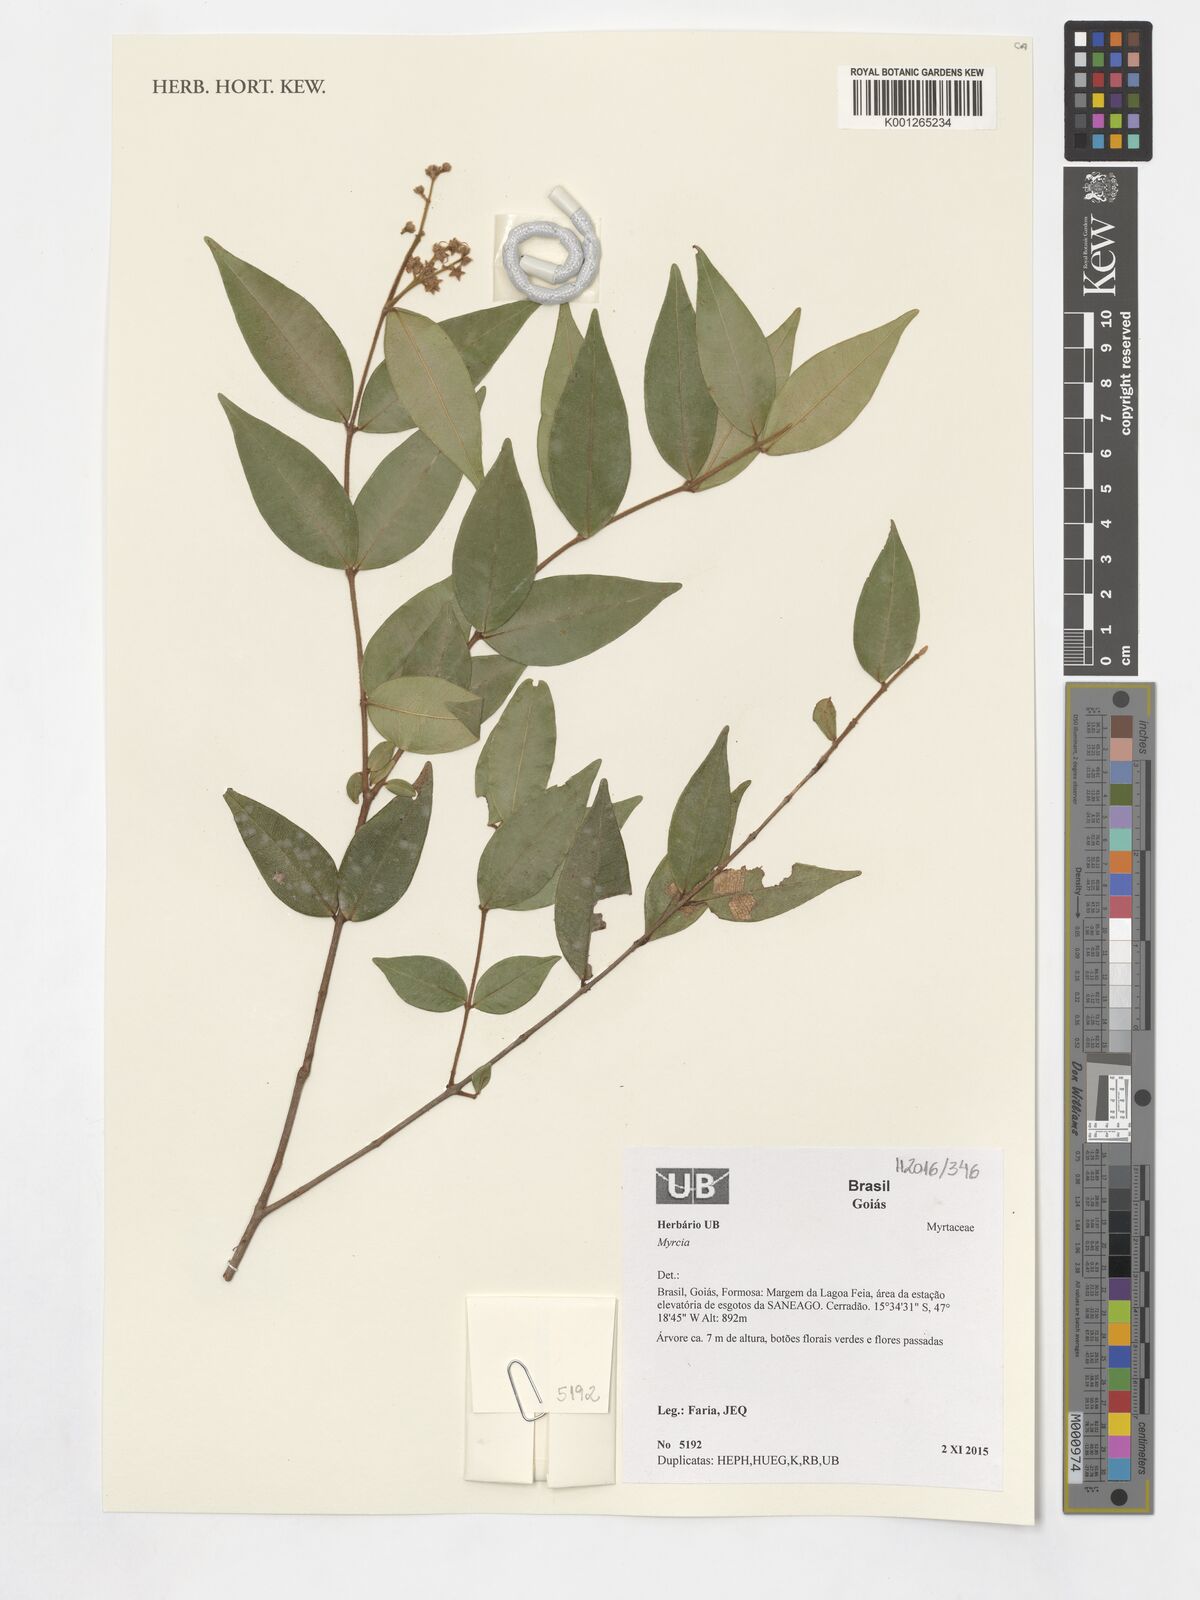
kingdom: Plantae
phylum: Tracheophyta
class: Magnoliopsida
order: Myrtales
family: Myrtaceae
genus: Myrcia
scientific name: Myrcia
